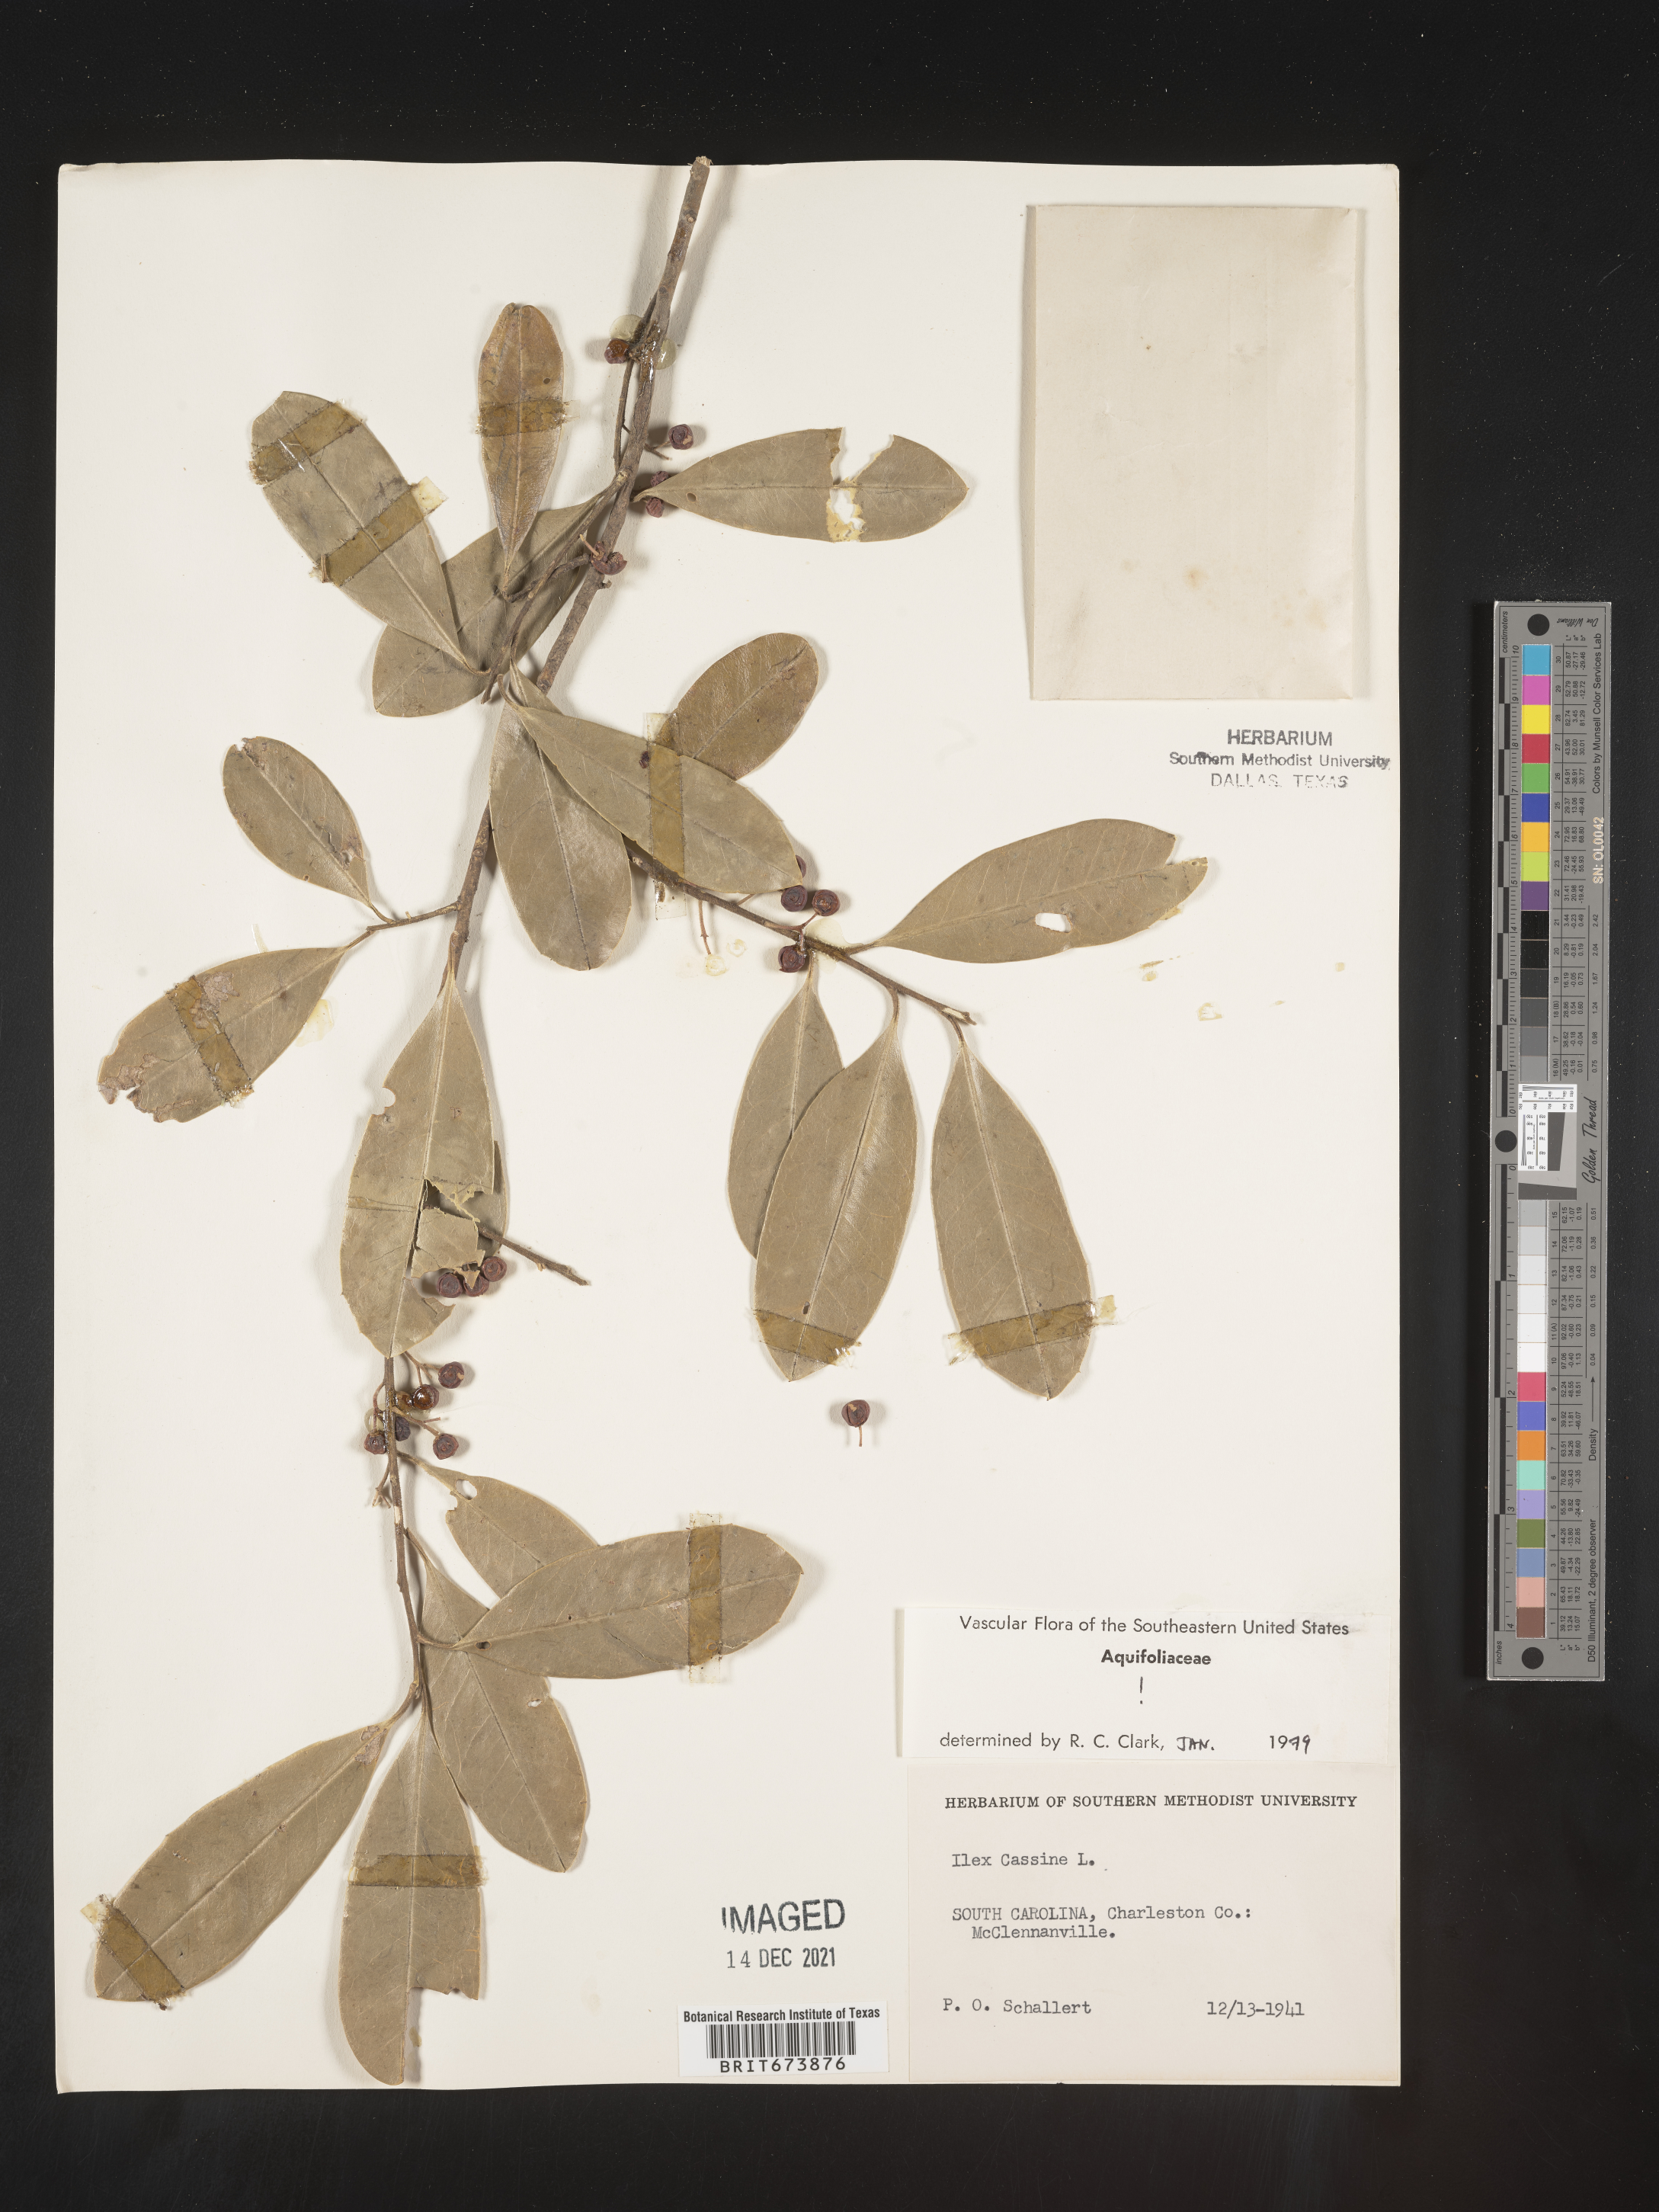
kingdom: Plantae
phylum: Tracheophyta
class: Magnoliopsida
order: Aquifoliales
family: Aquifoliaceae
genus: Ilex
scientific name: Ilex cassine
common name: Dahoon
